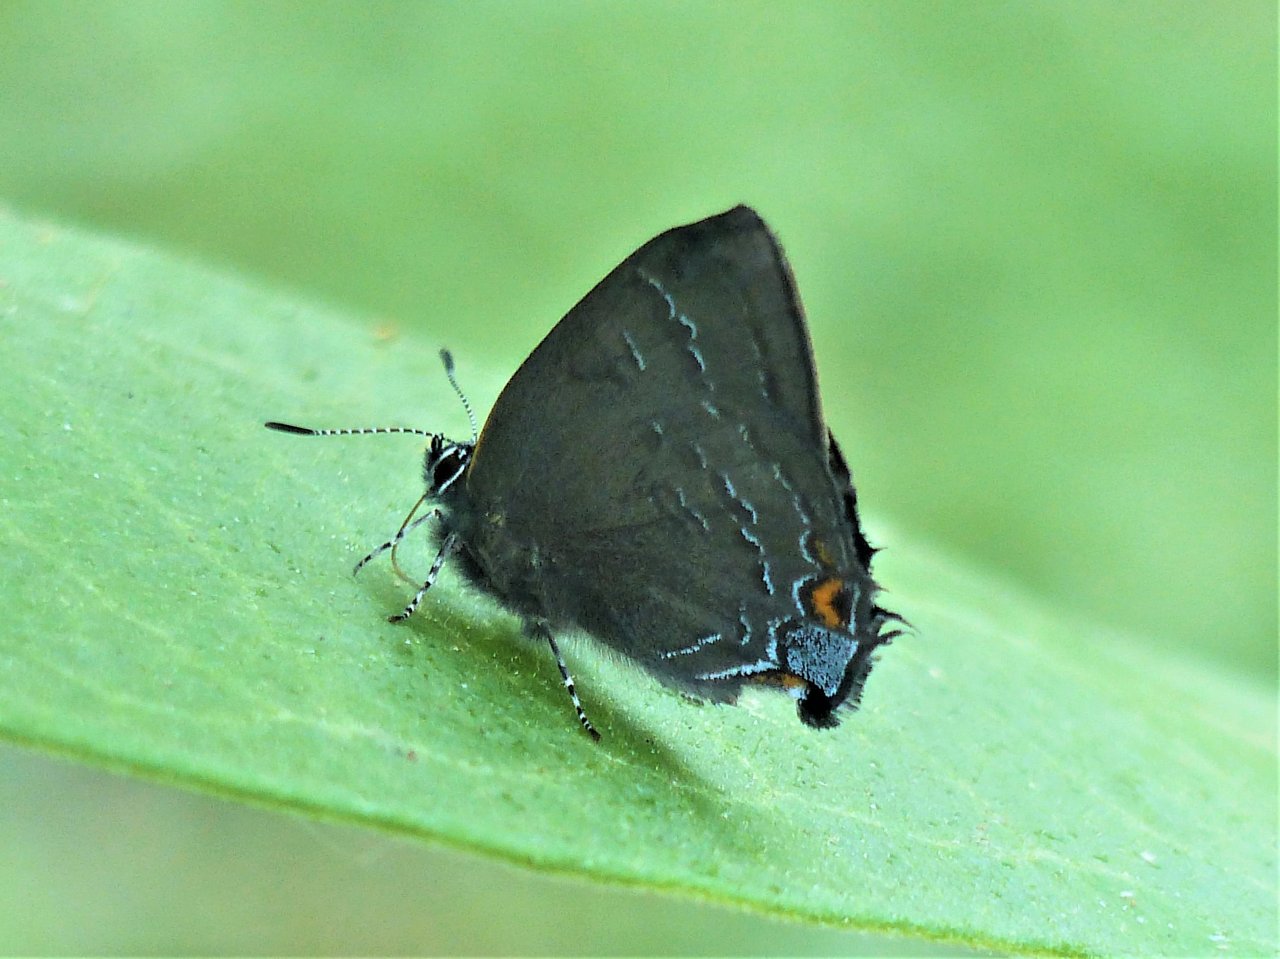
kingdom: Animalia
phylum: Arthropoda
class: Insecta
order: Lepidoptera
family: Lycaenidae
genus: Satyrium
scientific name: Satyrium calanus
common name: Banded Hairstreak
